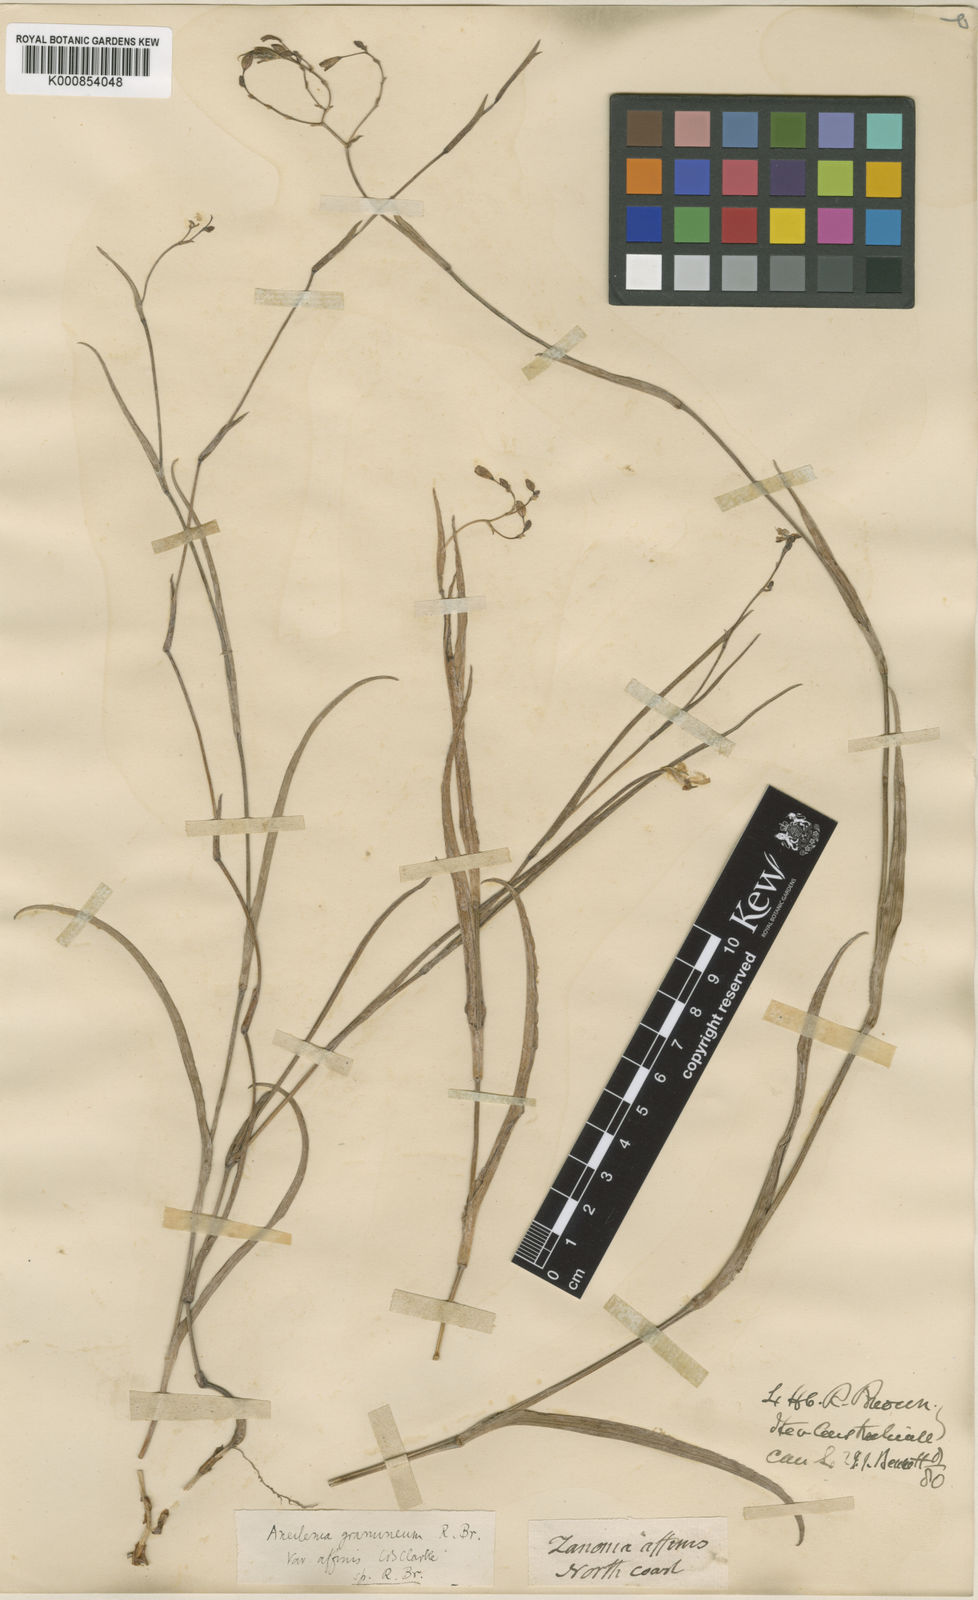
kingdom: Plantae
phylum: Tracheophyta
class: Liliopsida
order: Commelinales
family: Commelinaceae
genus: Murdannia
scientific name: Murdannia
